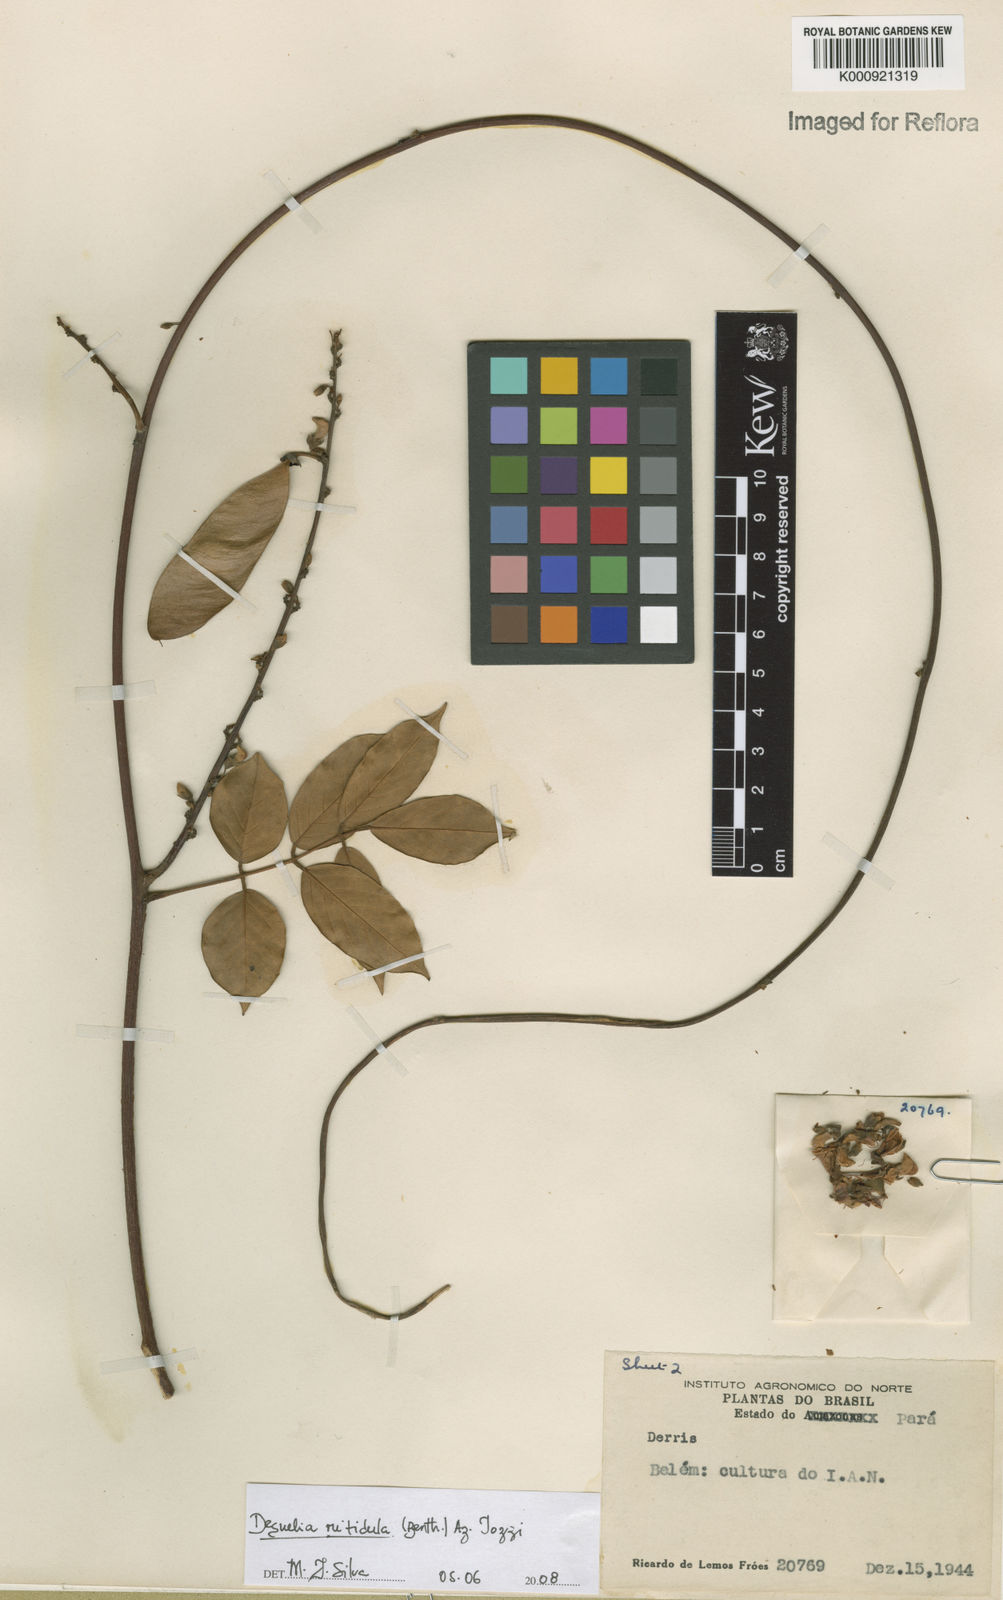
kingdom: Plantae
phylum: Tracheophyta
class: Magnoliopsida
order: Fabales
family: Fabaceae
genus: Deguelia
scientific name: Deguelia nitidula
